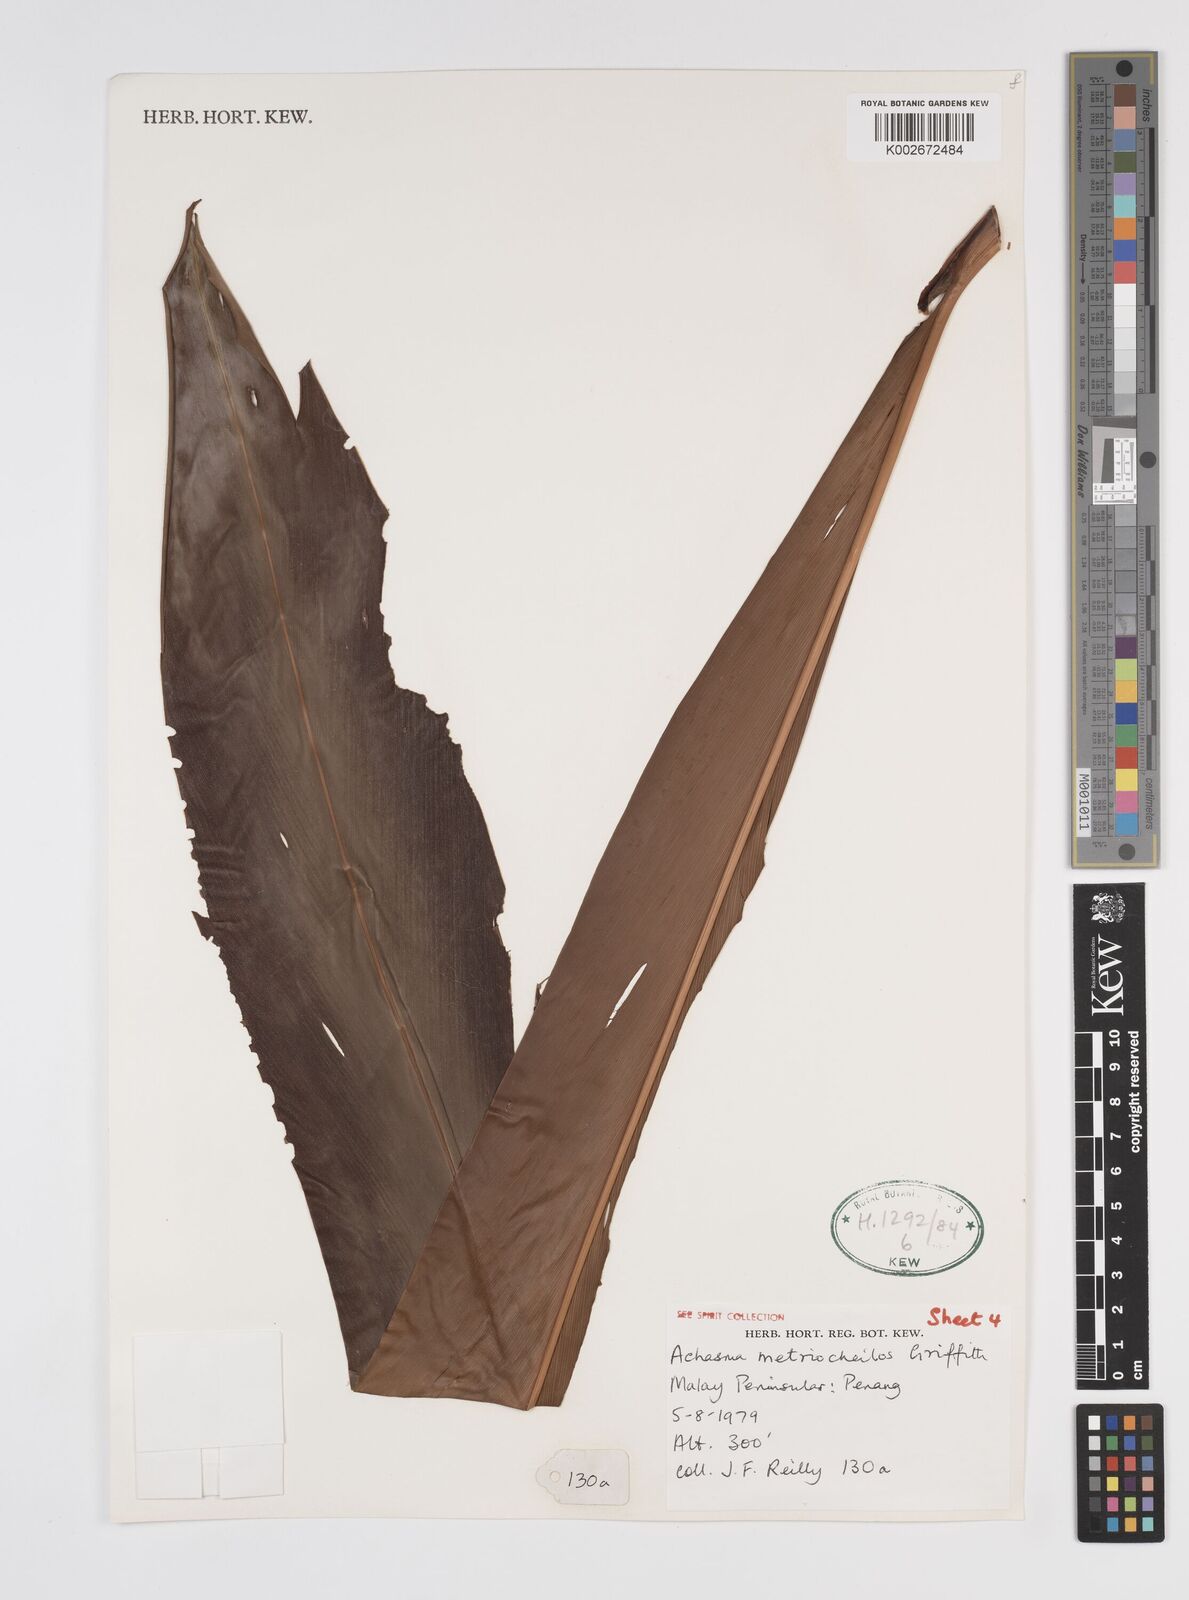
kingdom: Plantae
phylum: Tracheophyta
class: Liliopsida
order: Zingiberales
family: Zingiberaceae
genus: Etlingera
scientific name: Etlingera metriocheilos
